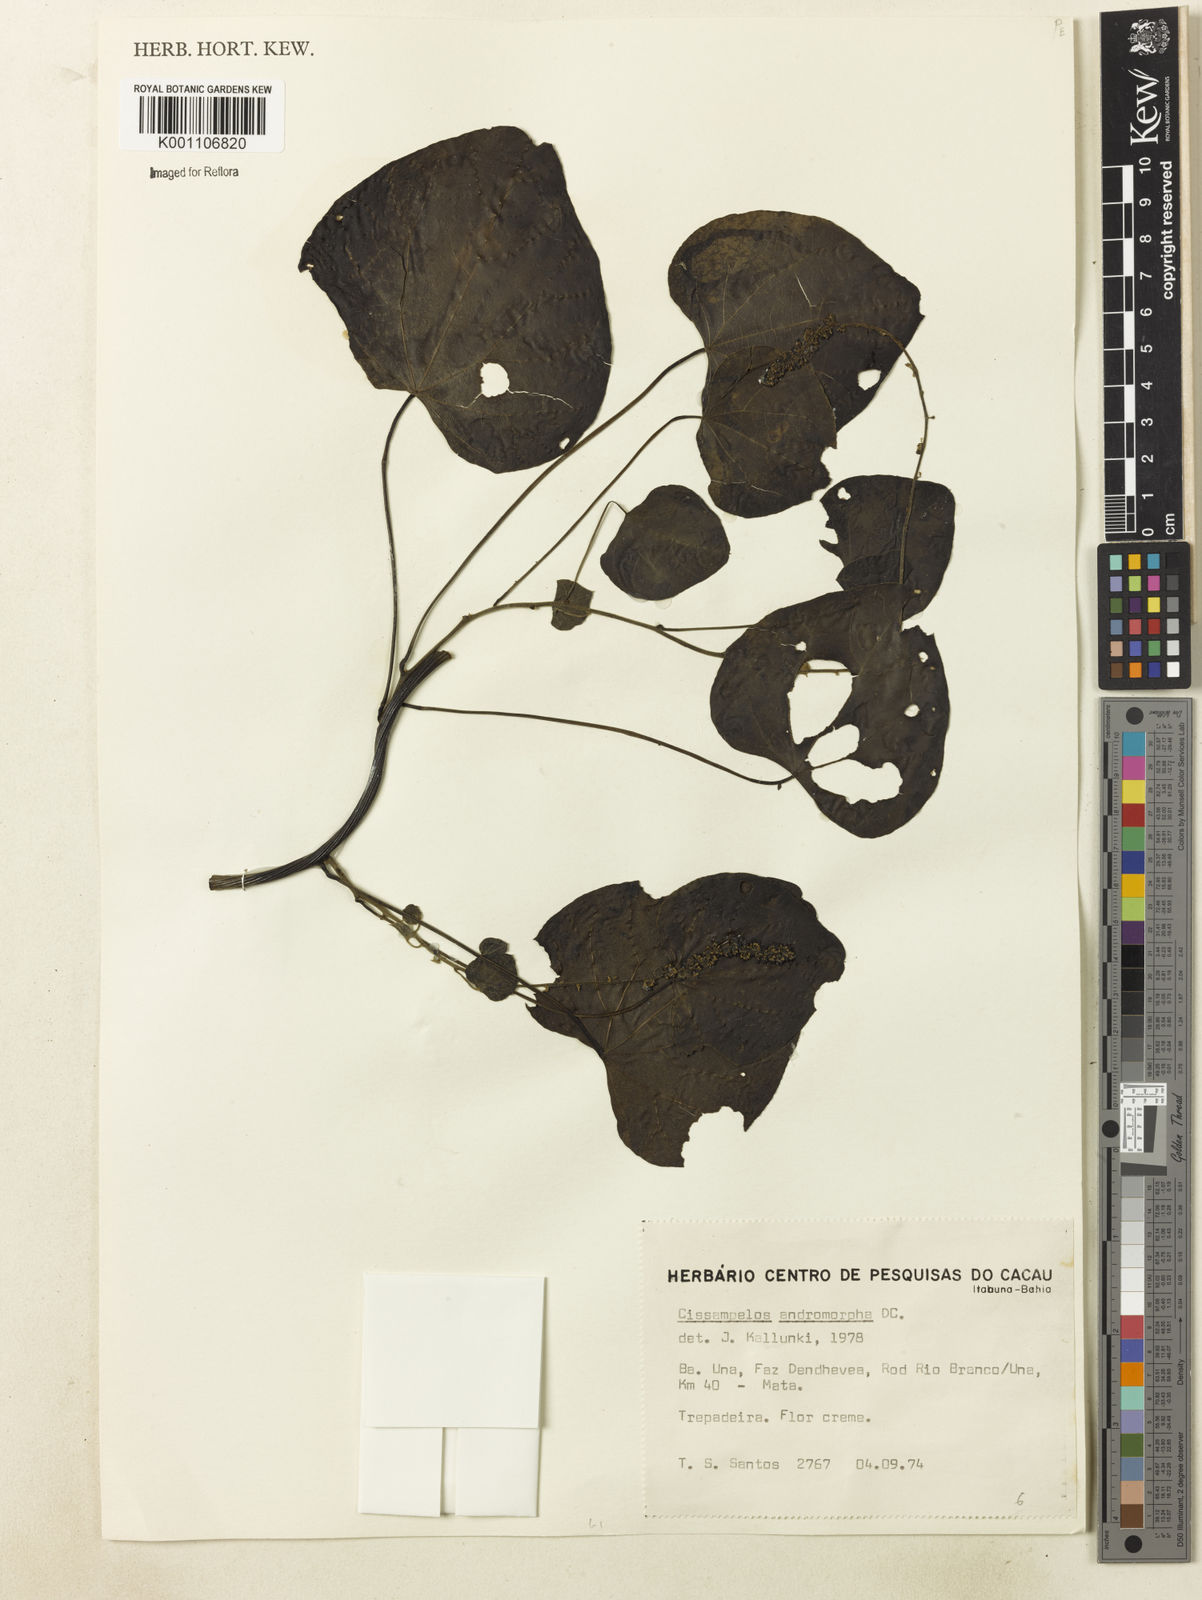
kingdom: Plantae
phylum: Tracheophyta
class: Magnoliopsida
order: Ranunculales
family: Menispermaceae
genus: Cissampelos
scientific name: Cissampelos andromorpha
